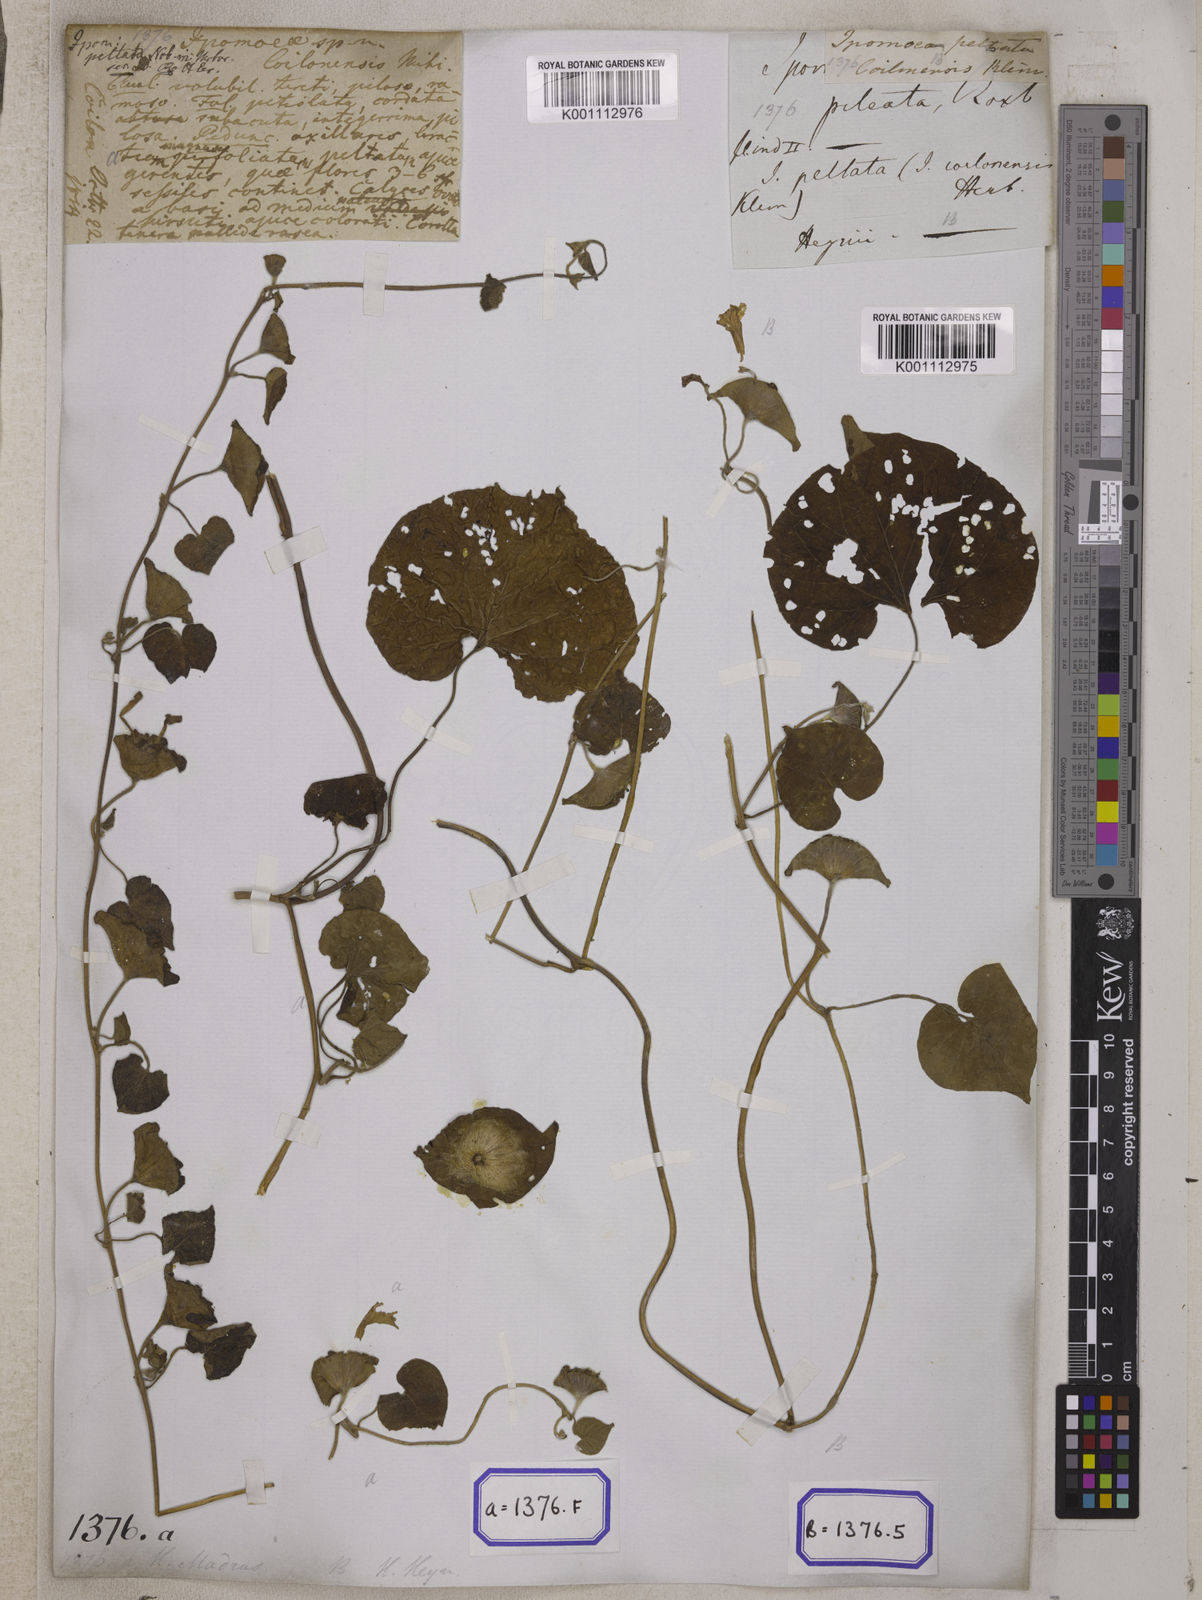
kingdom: Plantae
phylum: Tracheophyta
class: Magnoliopsida
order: Solanales
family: Convolvulaceae
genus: Ipomoea
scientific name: Ipomoea pileata
